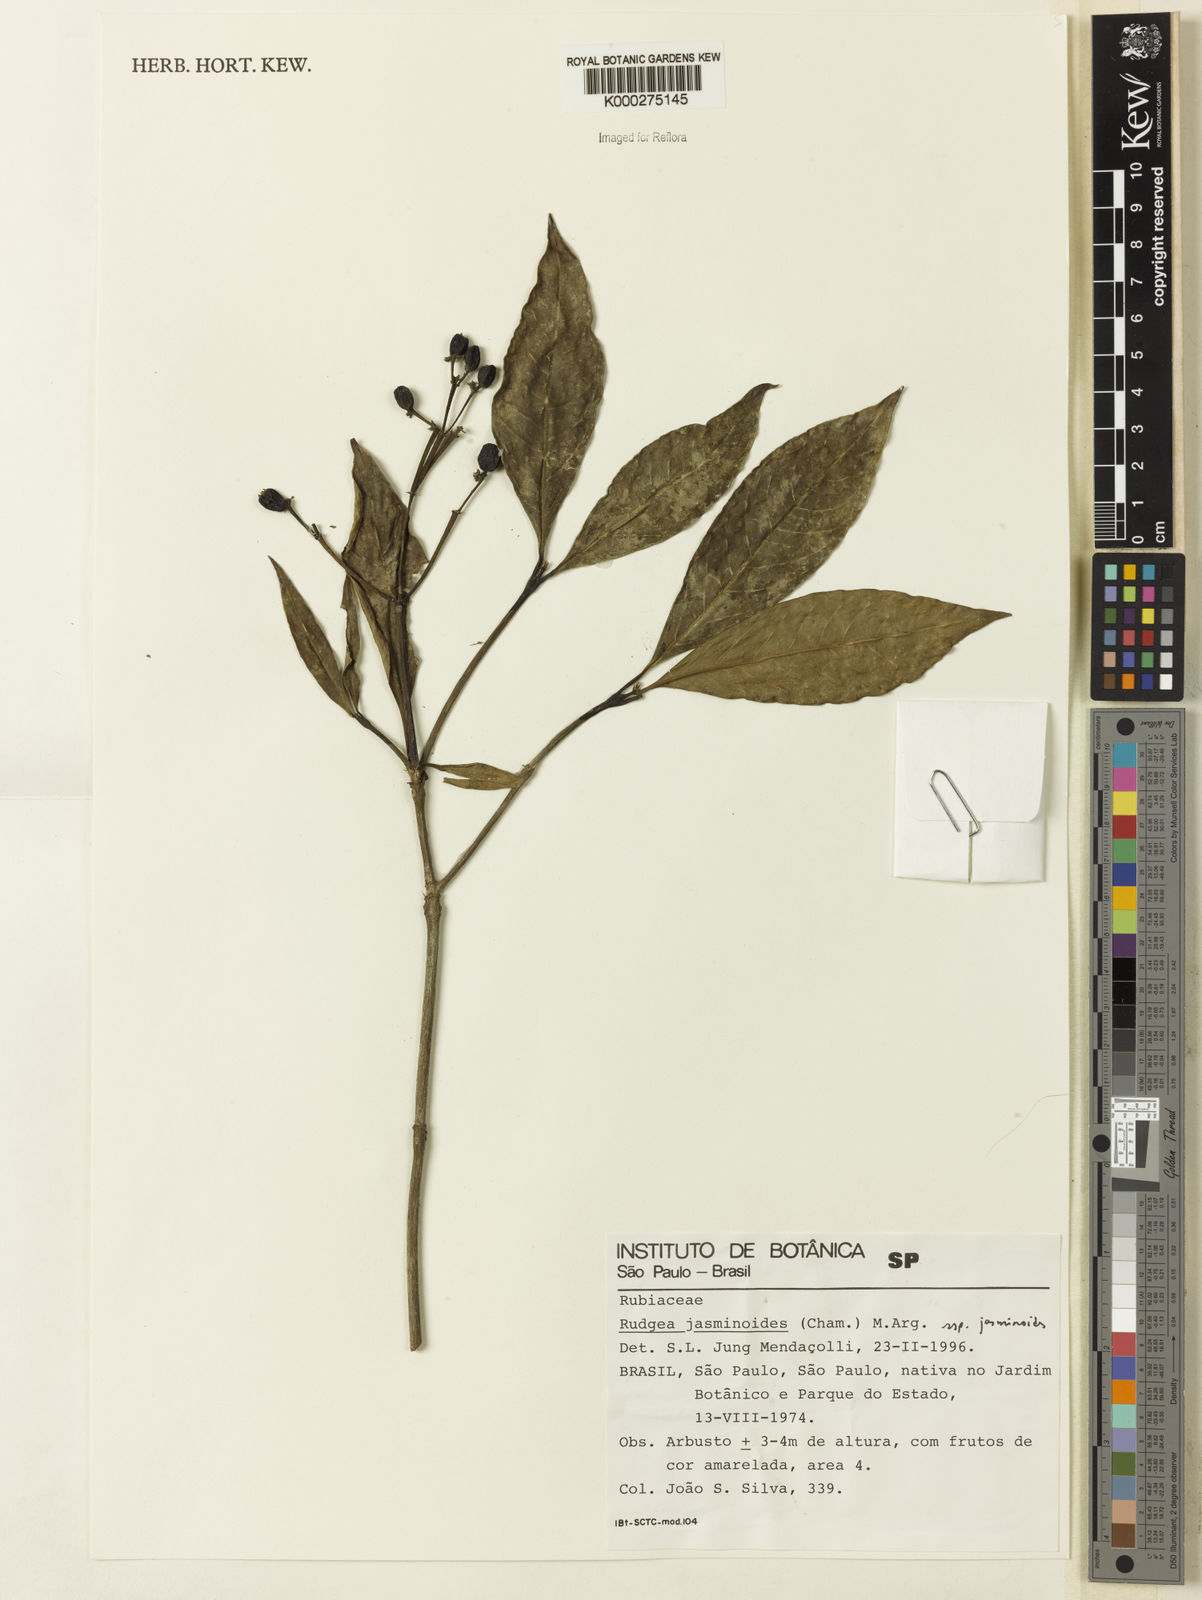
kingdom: Plantae
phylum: Tracheophyta
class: Magnoliopsida
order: Gentianales
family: Rubiaceae
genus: Rudgea
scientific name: Rudgea jasminoides
